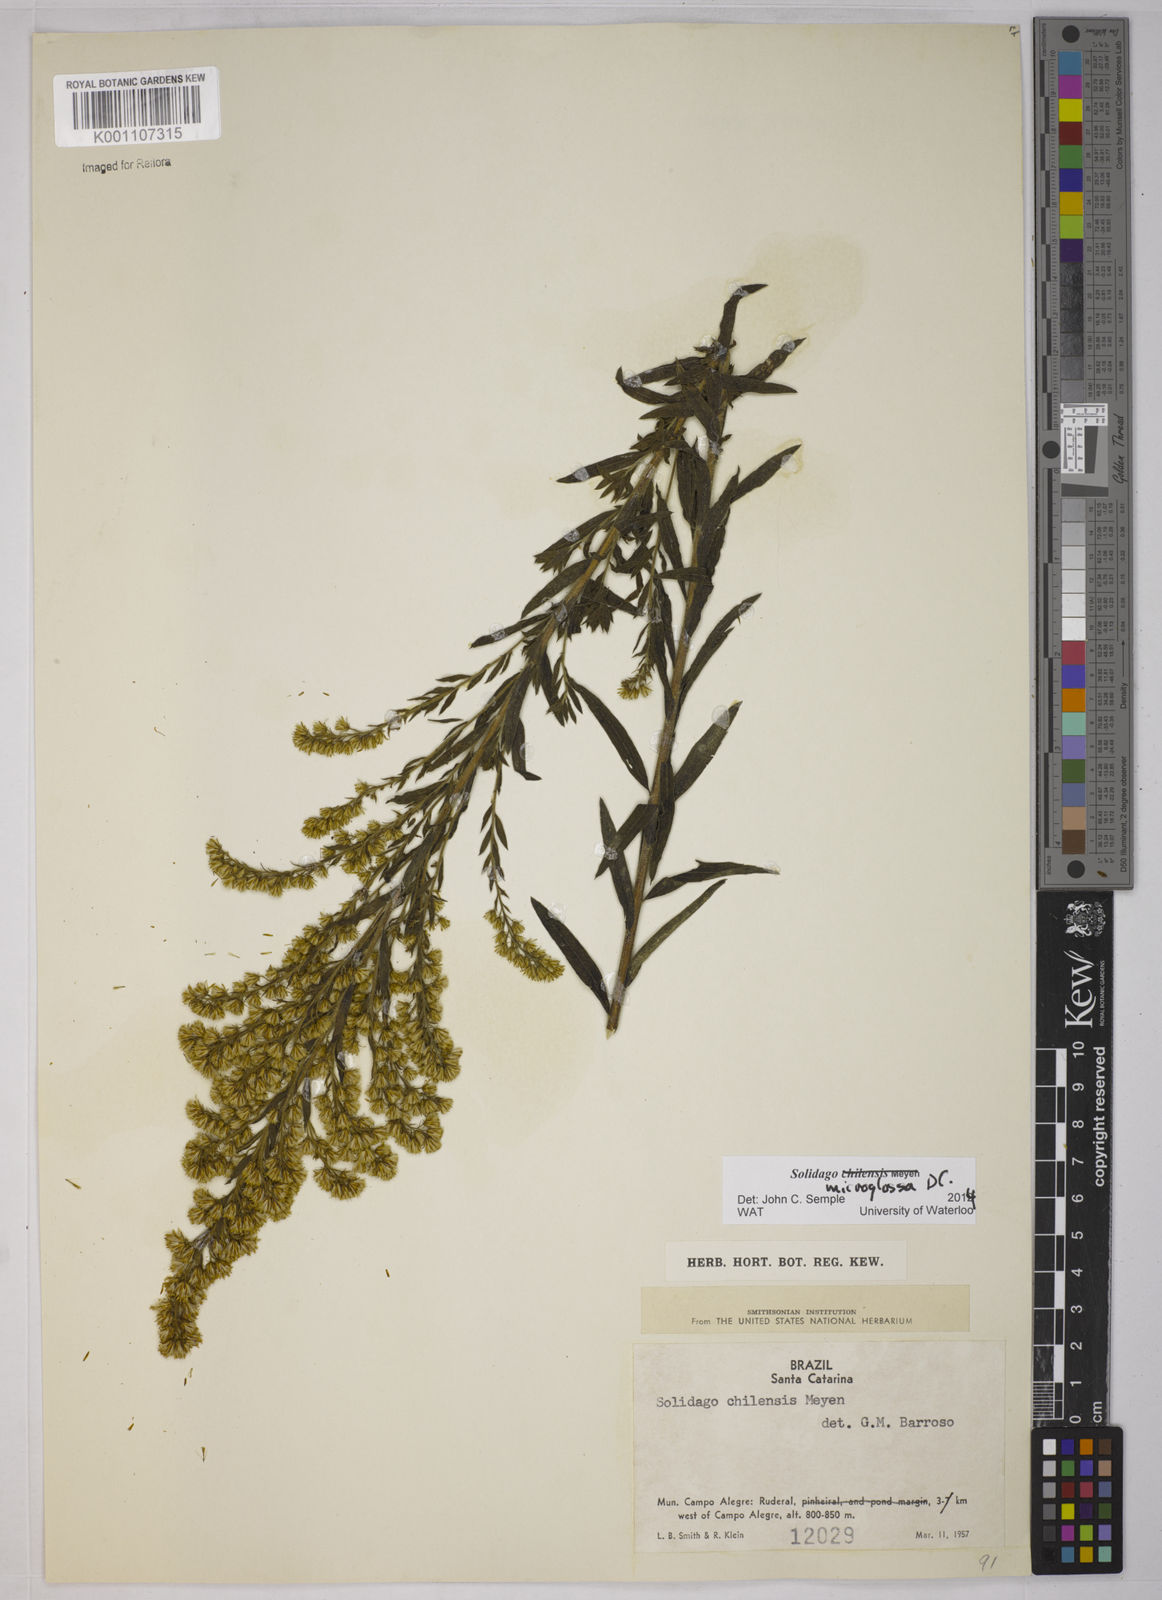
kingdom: Plantae
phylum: Tracheophyta
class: Magnoliopsida
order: Asterales
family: Asteraceae
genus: Solidago
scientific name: Solidago chilensis
